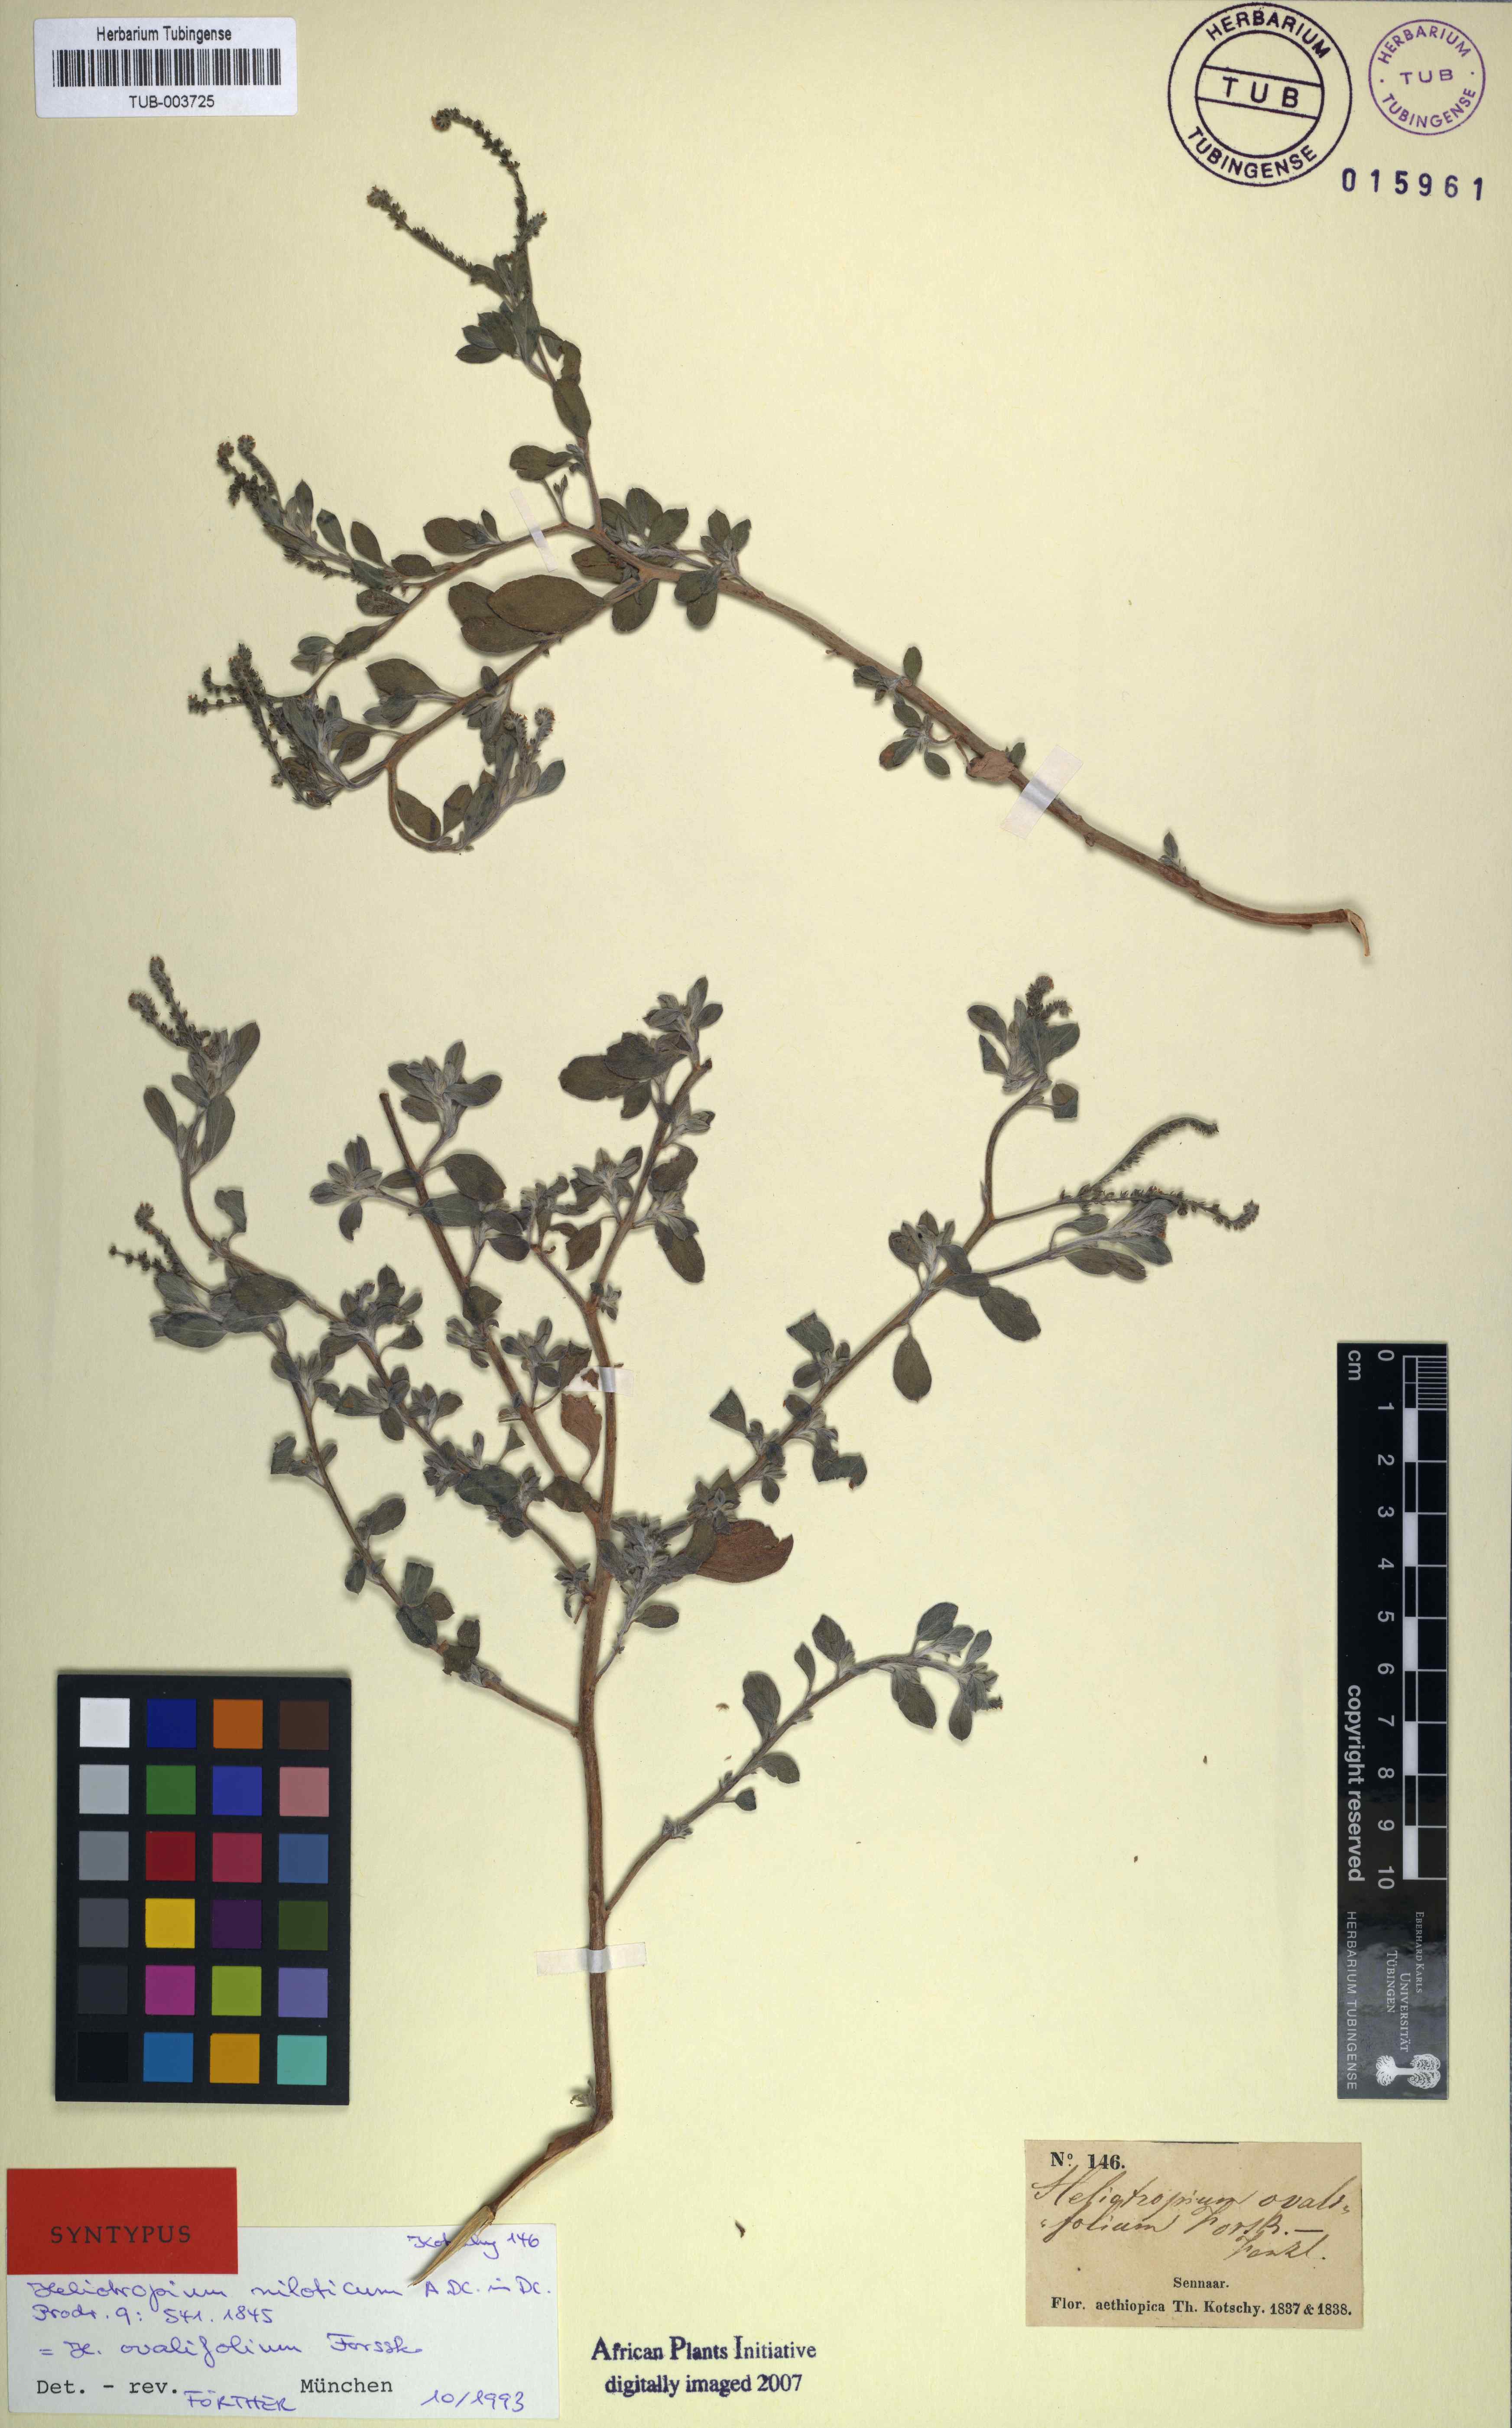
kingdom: Plantae
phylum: Tracheophyta
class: Magnoliopsida
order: Boraginales
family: Heliotropiaceae
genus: Euploca
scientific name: Euploca ovalifolia
